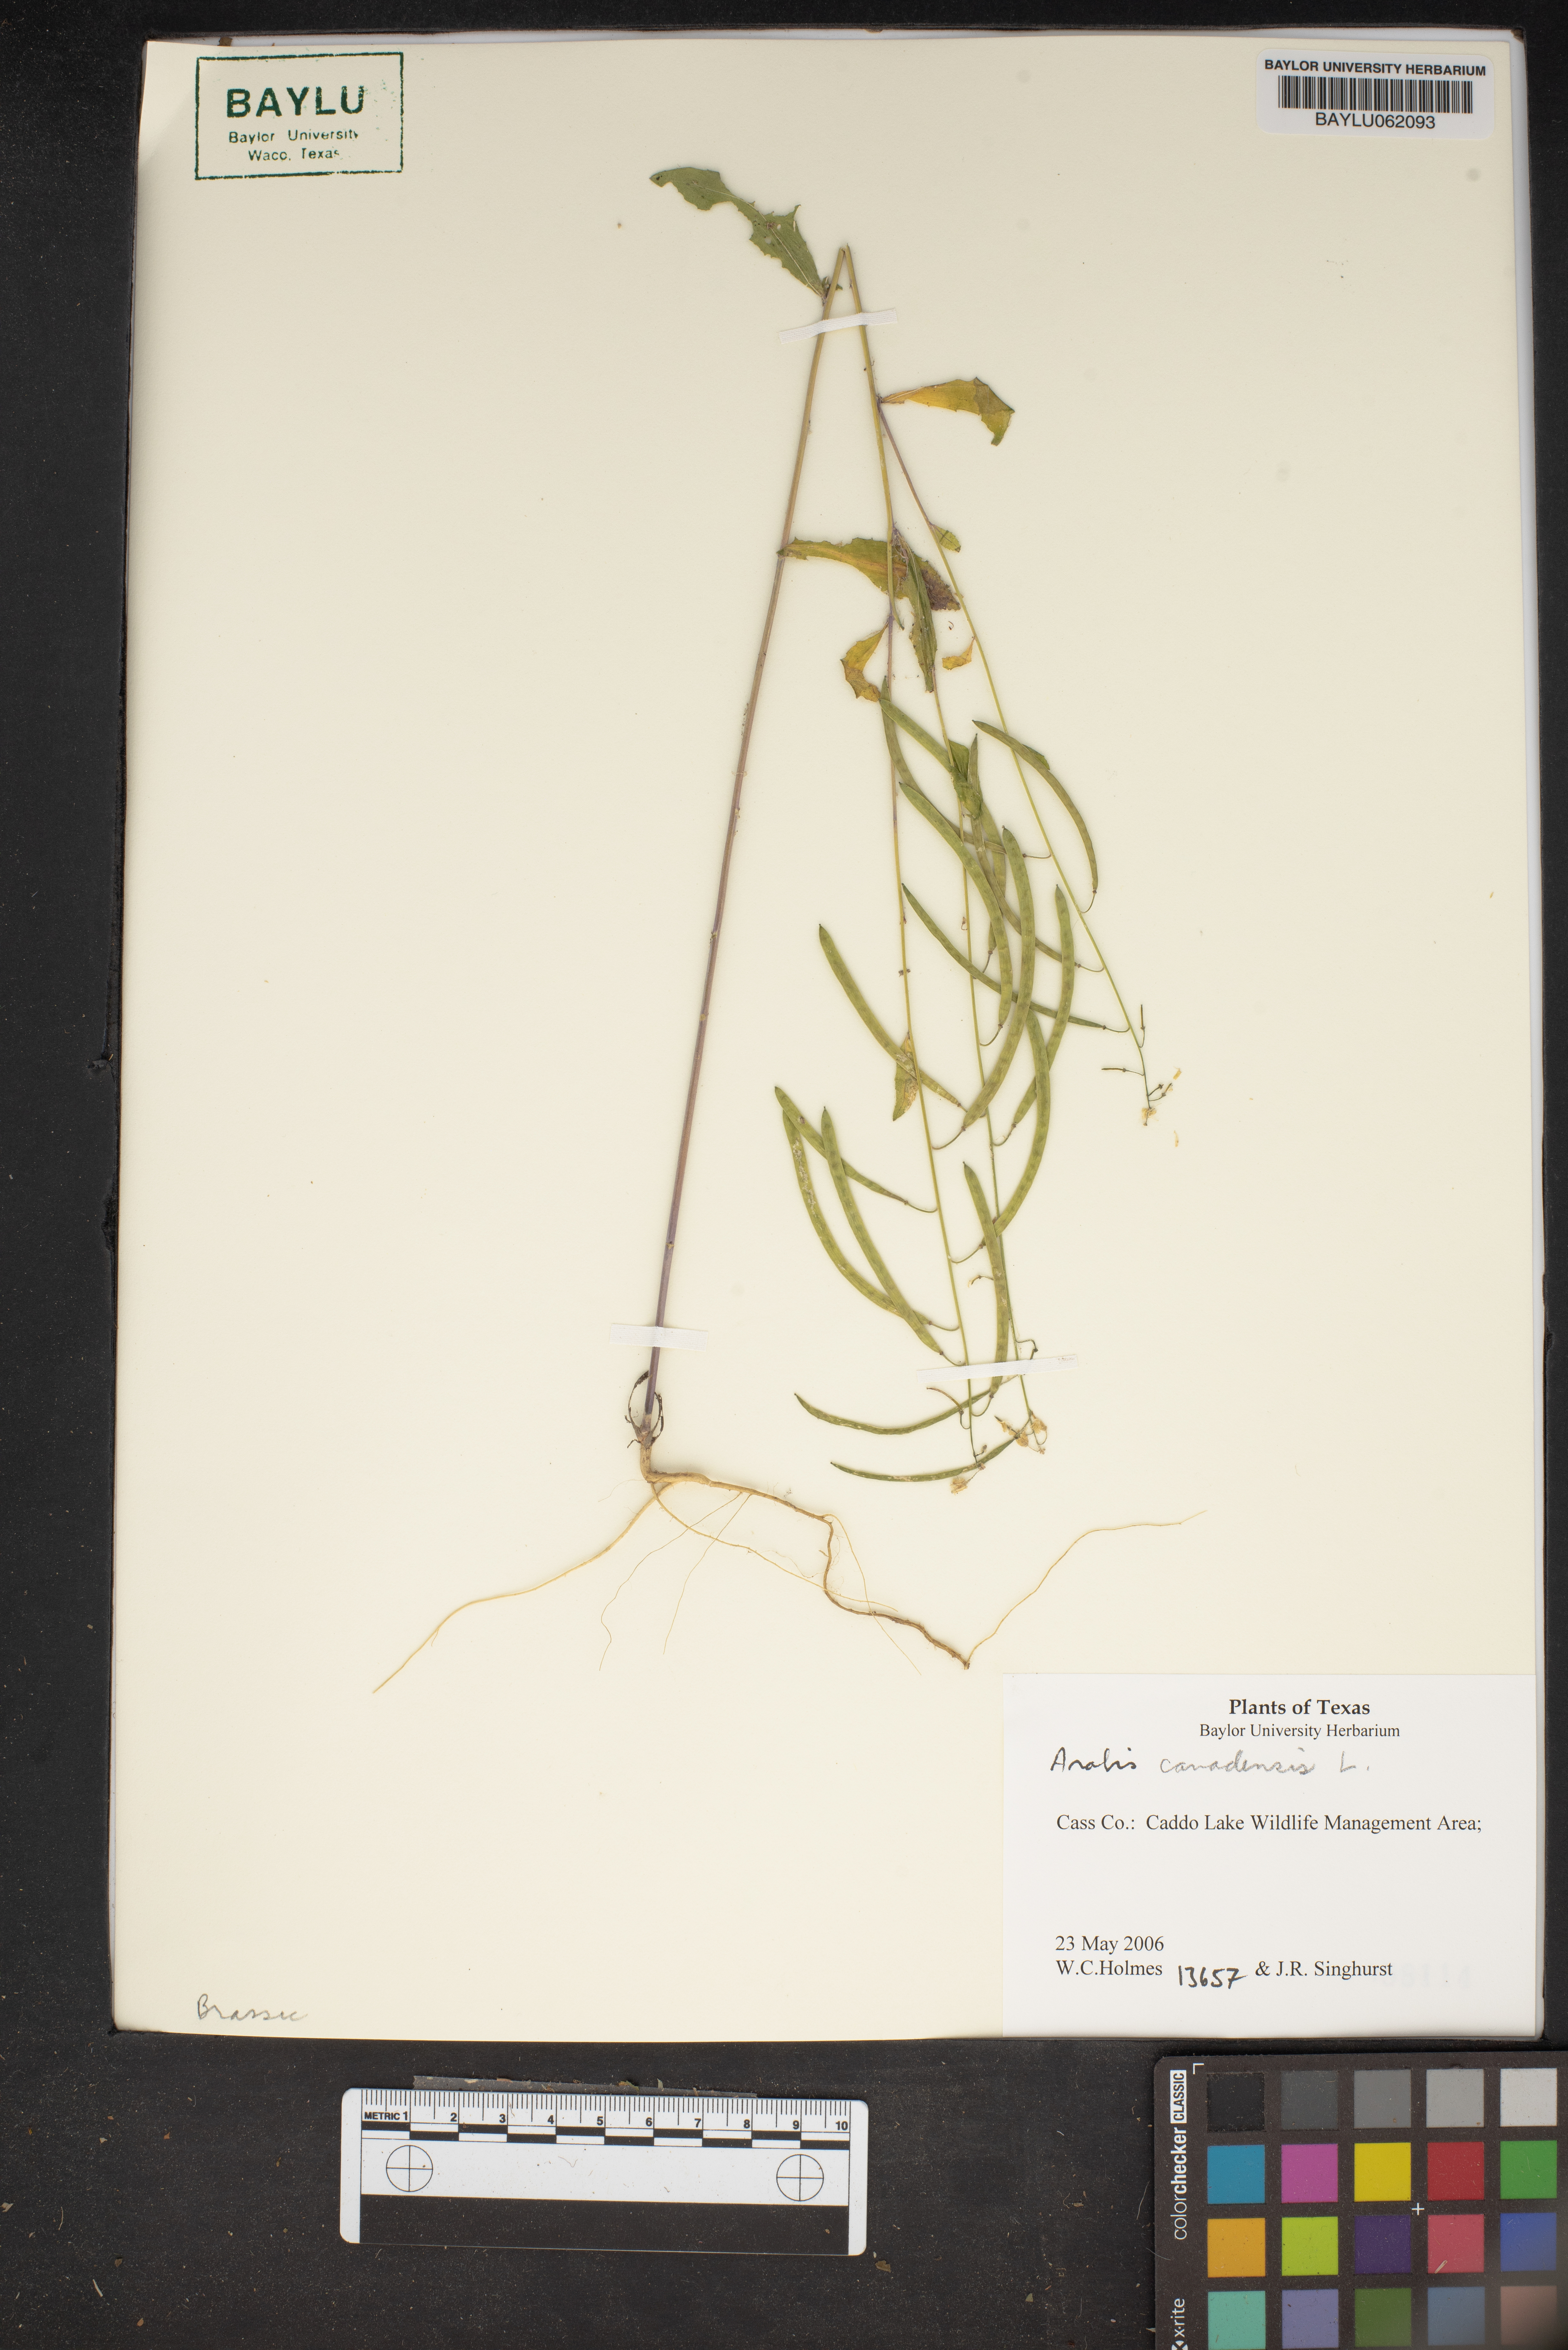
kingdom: Plantae
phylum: Tracheophyta
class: Magnoliopsida
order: Brassicales
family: Brassicaceae
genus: Borodinia
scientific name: Borodinia canadensis
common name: Sicklepod
